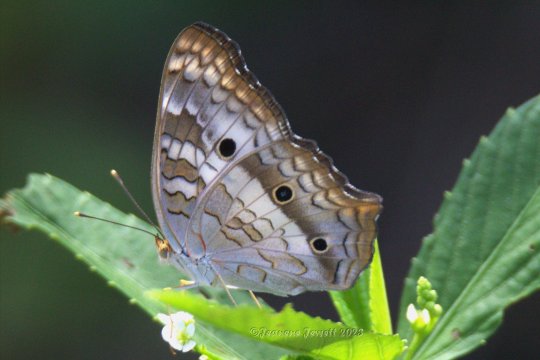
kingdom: Animalia
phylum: Arthropoda
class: Insecta
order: Lepidoptera
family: Nymphalidae
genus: Anartia
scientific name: Anartia jatrophae
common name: White Peacock
